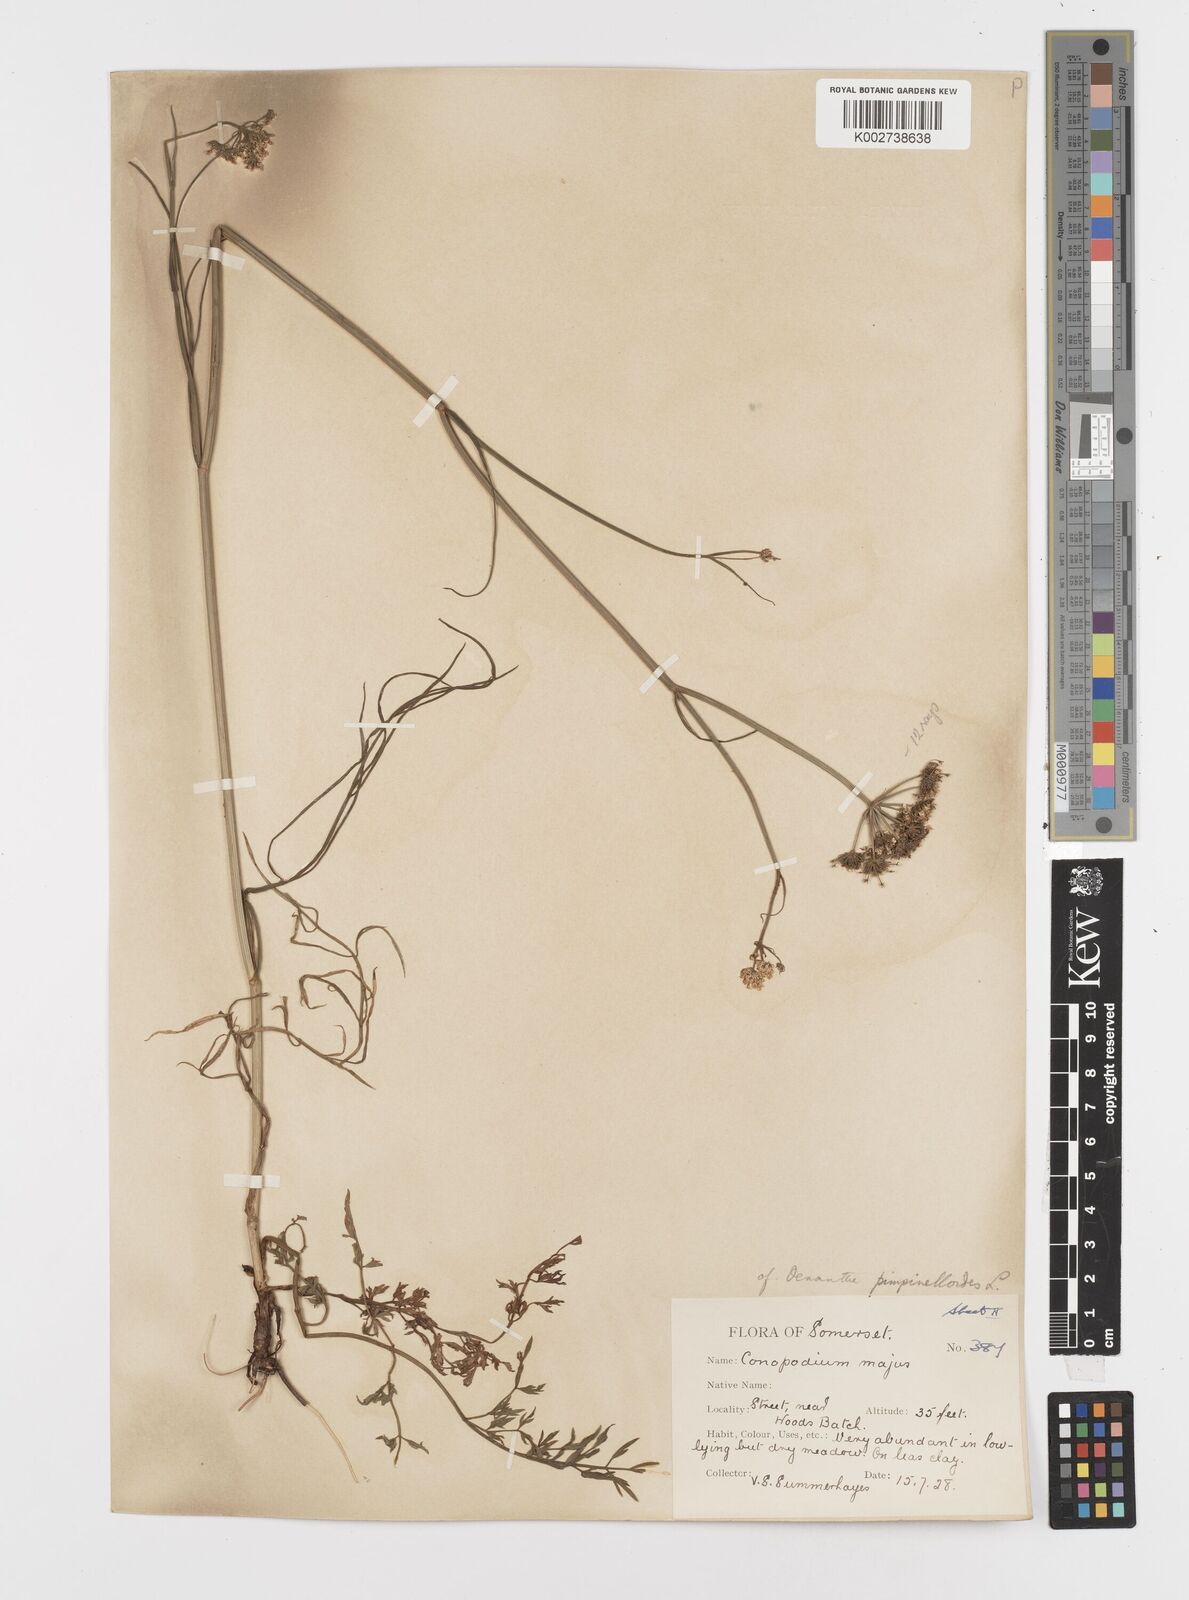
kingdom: Plantae
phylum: Tracheophyta
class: Magnoliopsida
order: Apiales
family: Apiaceae
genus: Oenanthe
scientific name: Oenanthe pimpinelloides
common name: Corky-fruited water-dropwort
